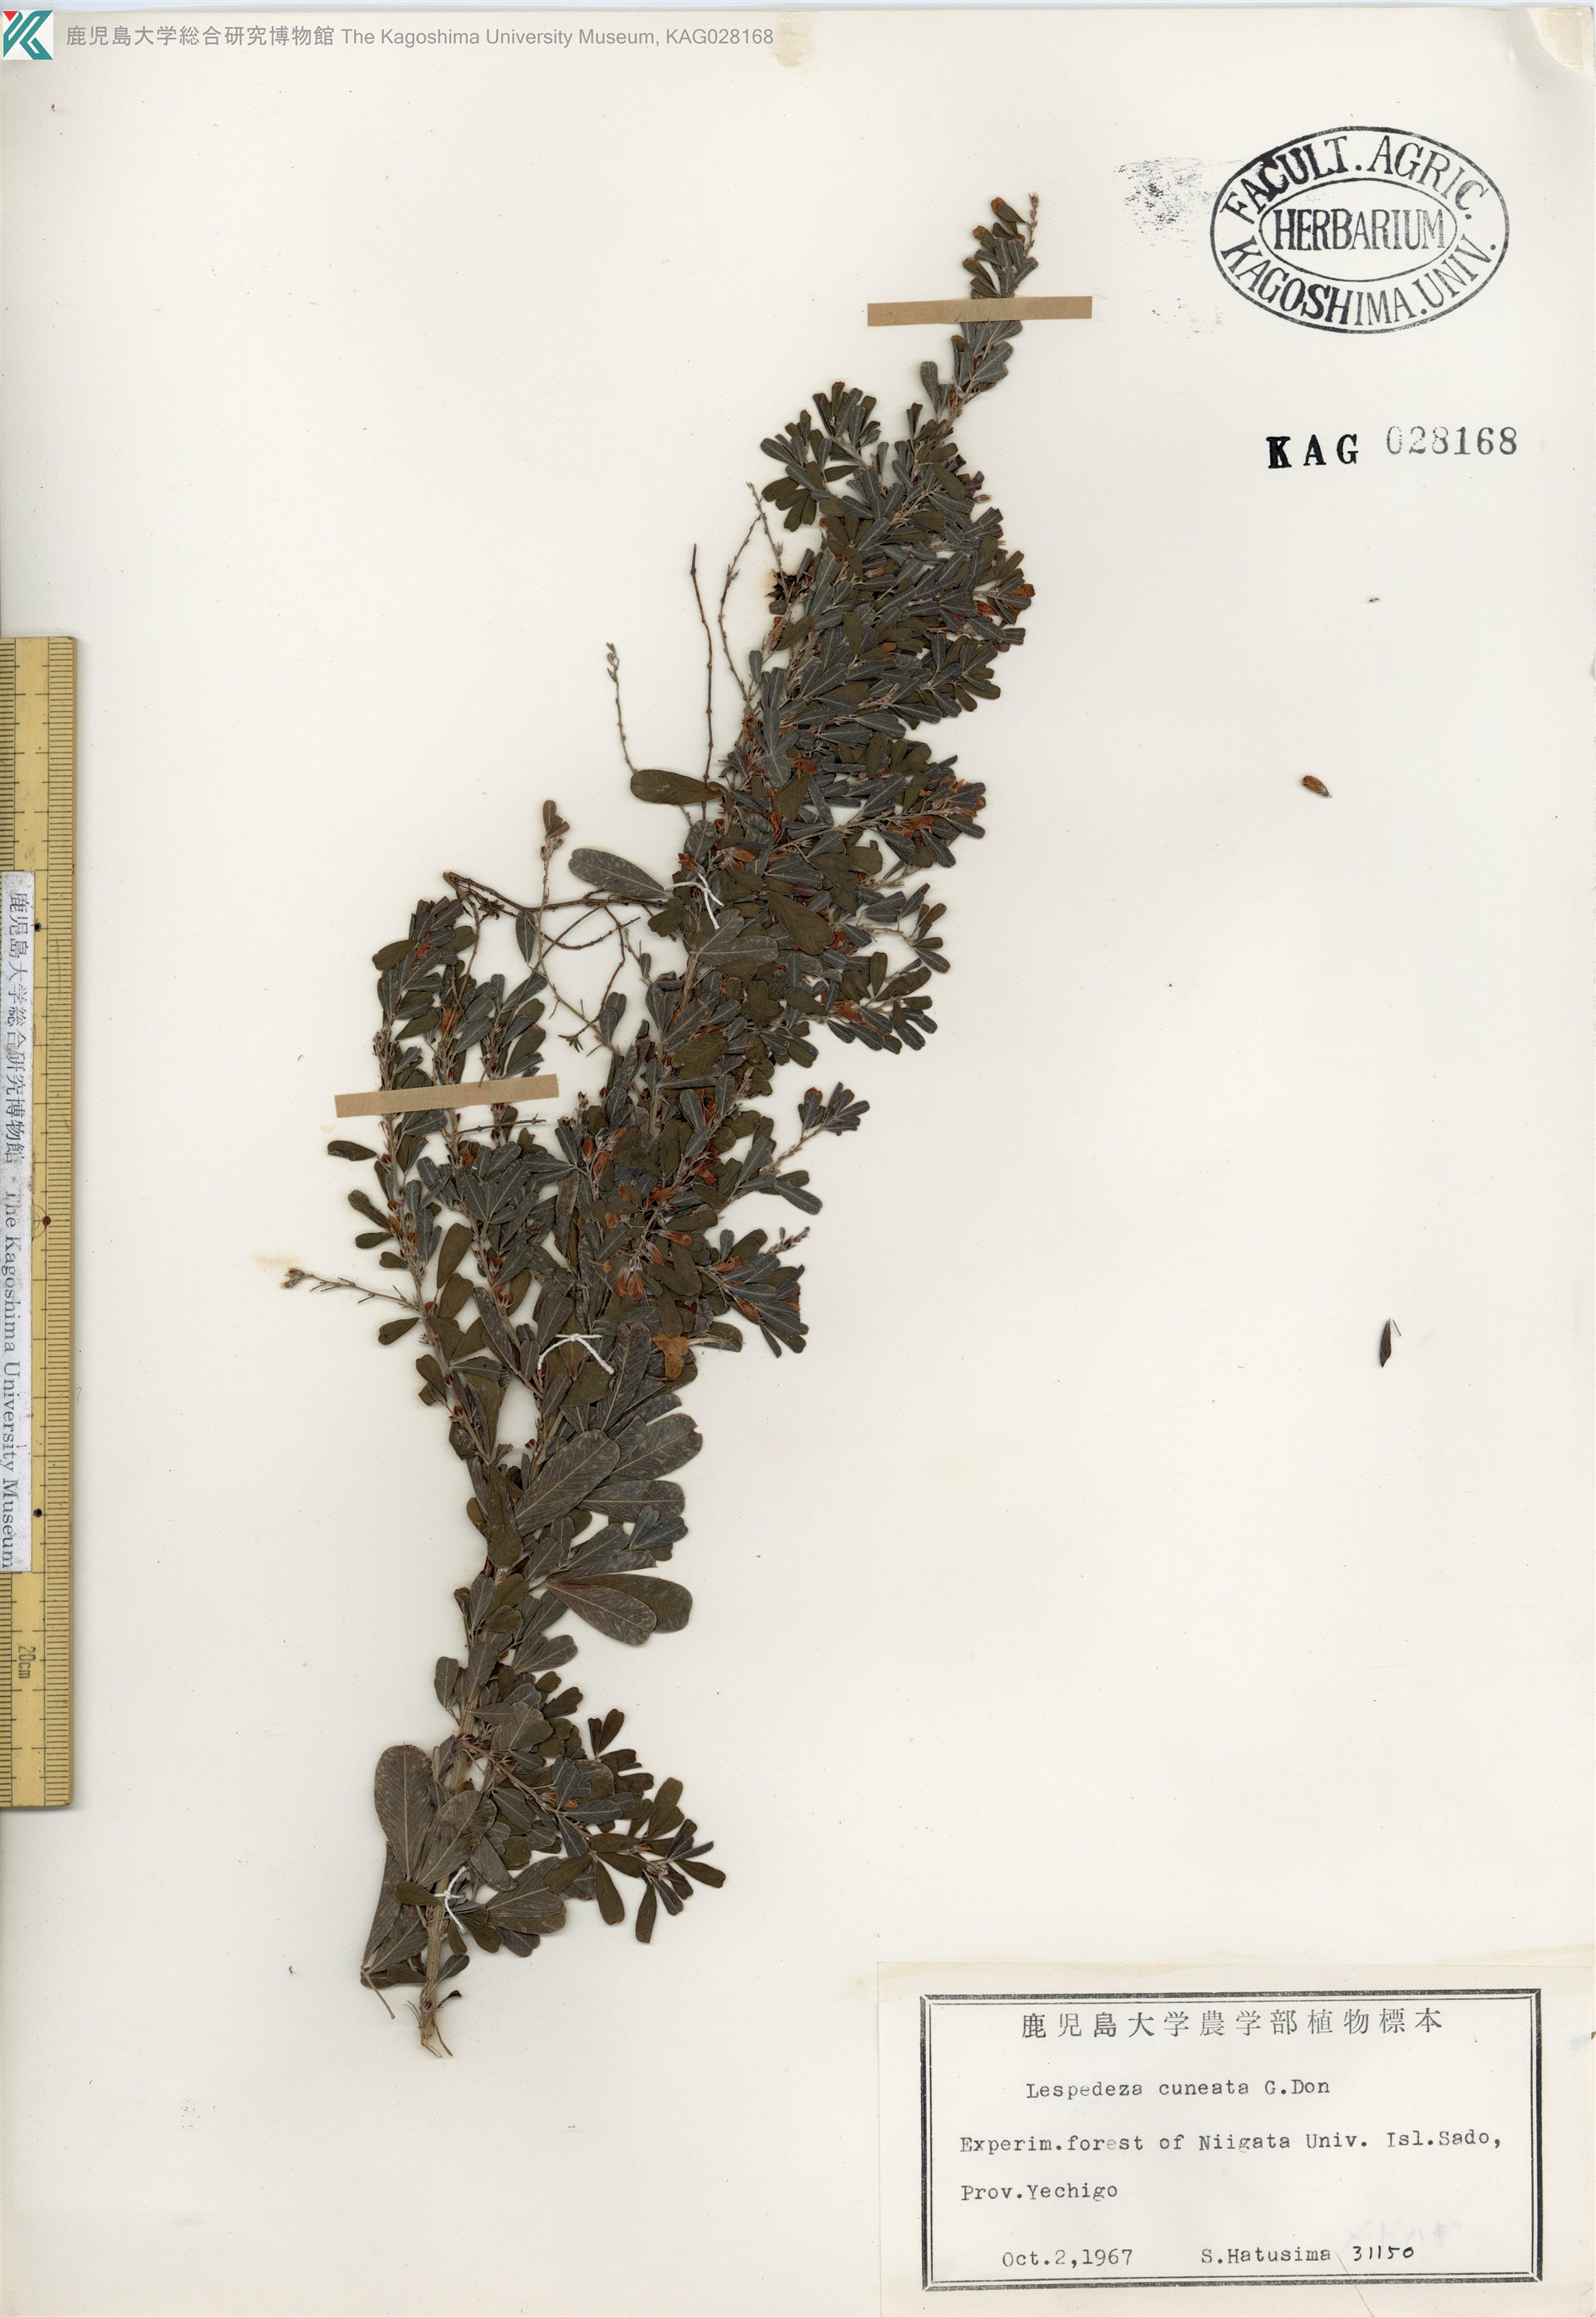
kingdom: Plantae
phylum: Tracheophyta
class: Magnoliopsida
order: Fabales
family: Fabaceae
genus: Lespedeza
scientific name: Lespedeza cuneata
